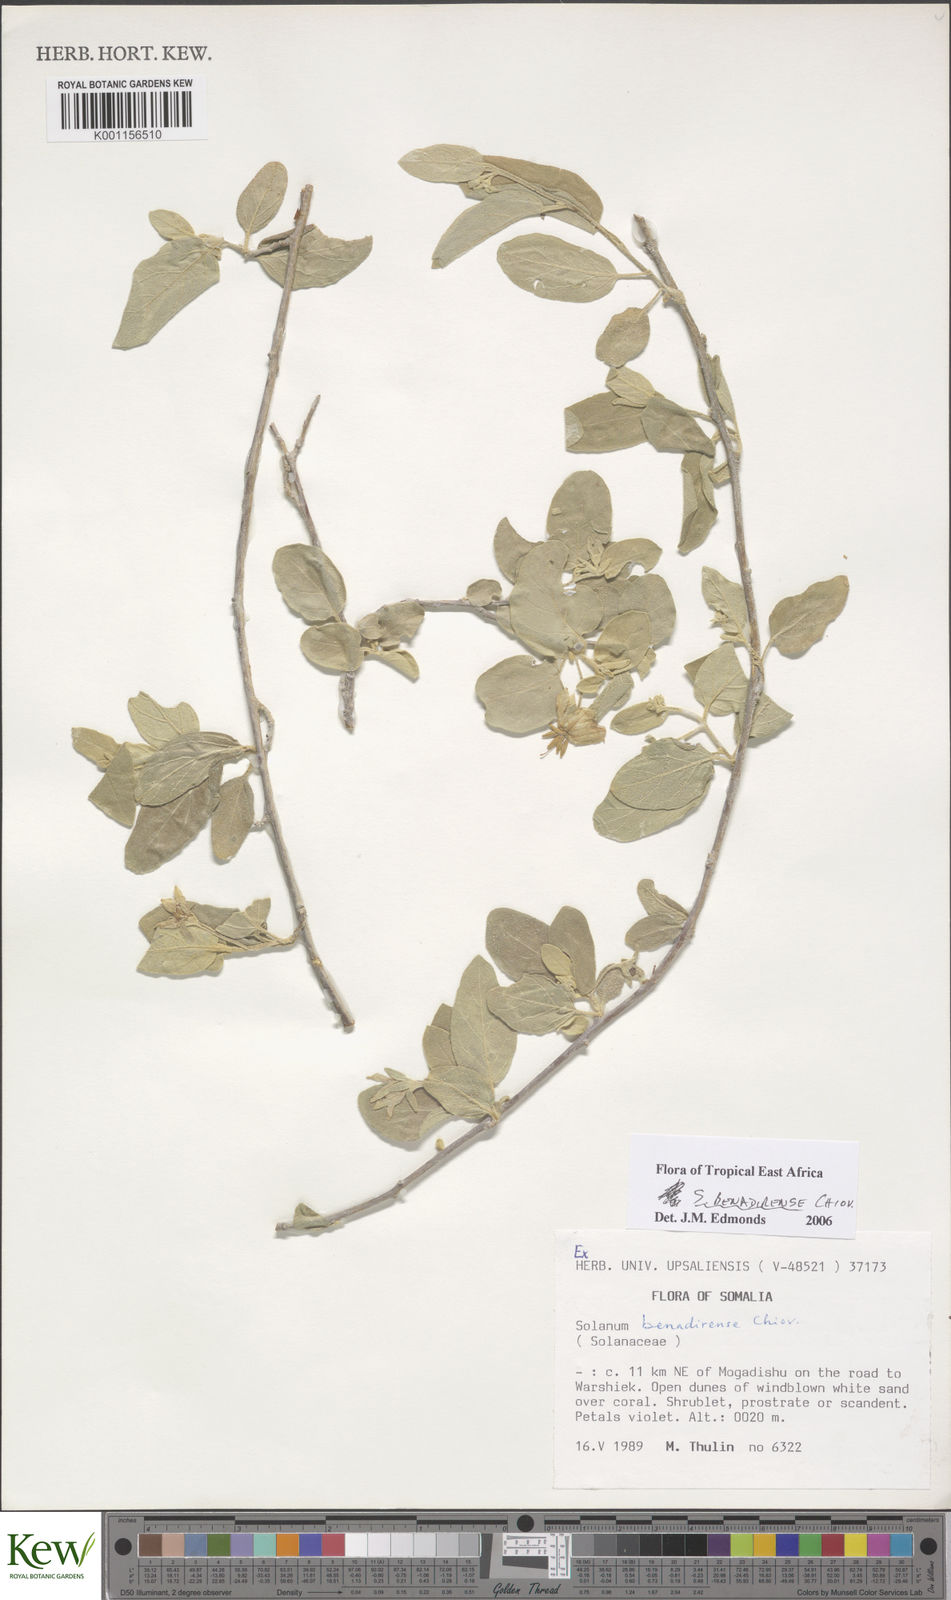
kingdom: Plantae
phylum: Tracheophyta
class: Magnoliopsida
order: Solanales
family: Solanaceae
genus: Solanum
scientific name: Solanum pampaninii
